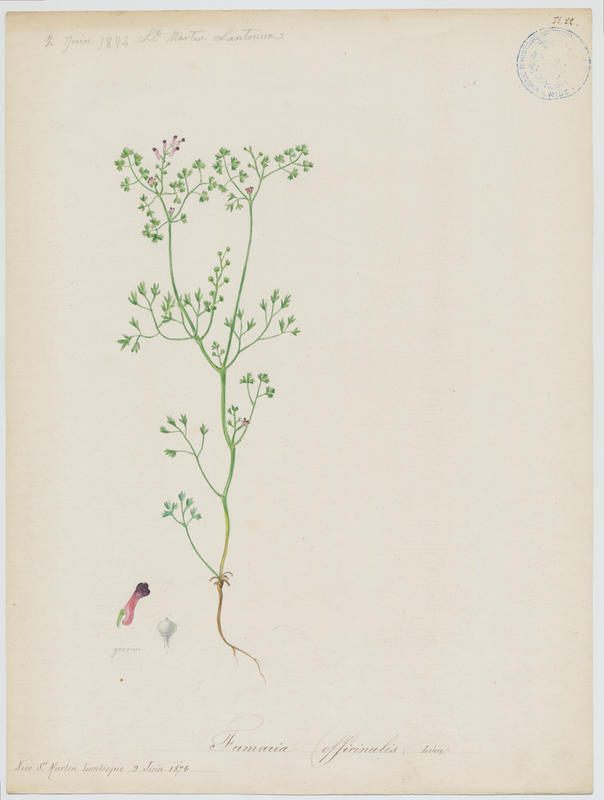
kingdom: Plantae
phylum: Tracheophyta
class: Magnoliopsida
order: Ranunculales
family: Papaveraceae
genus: Fumaria
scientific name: Fumaria officinalis
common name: Common fumitory
